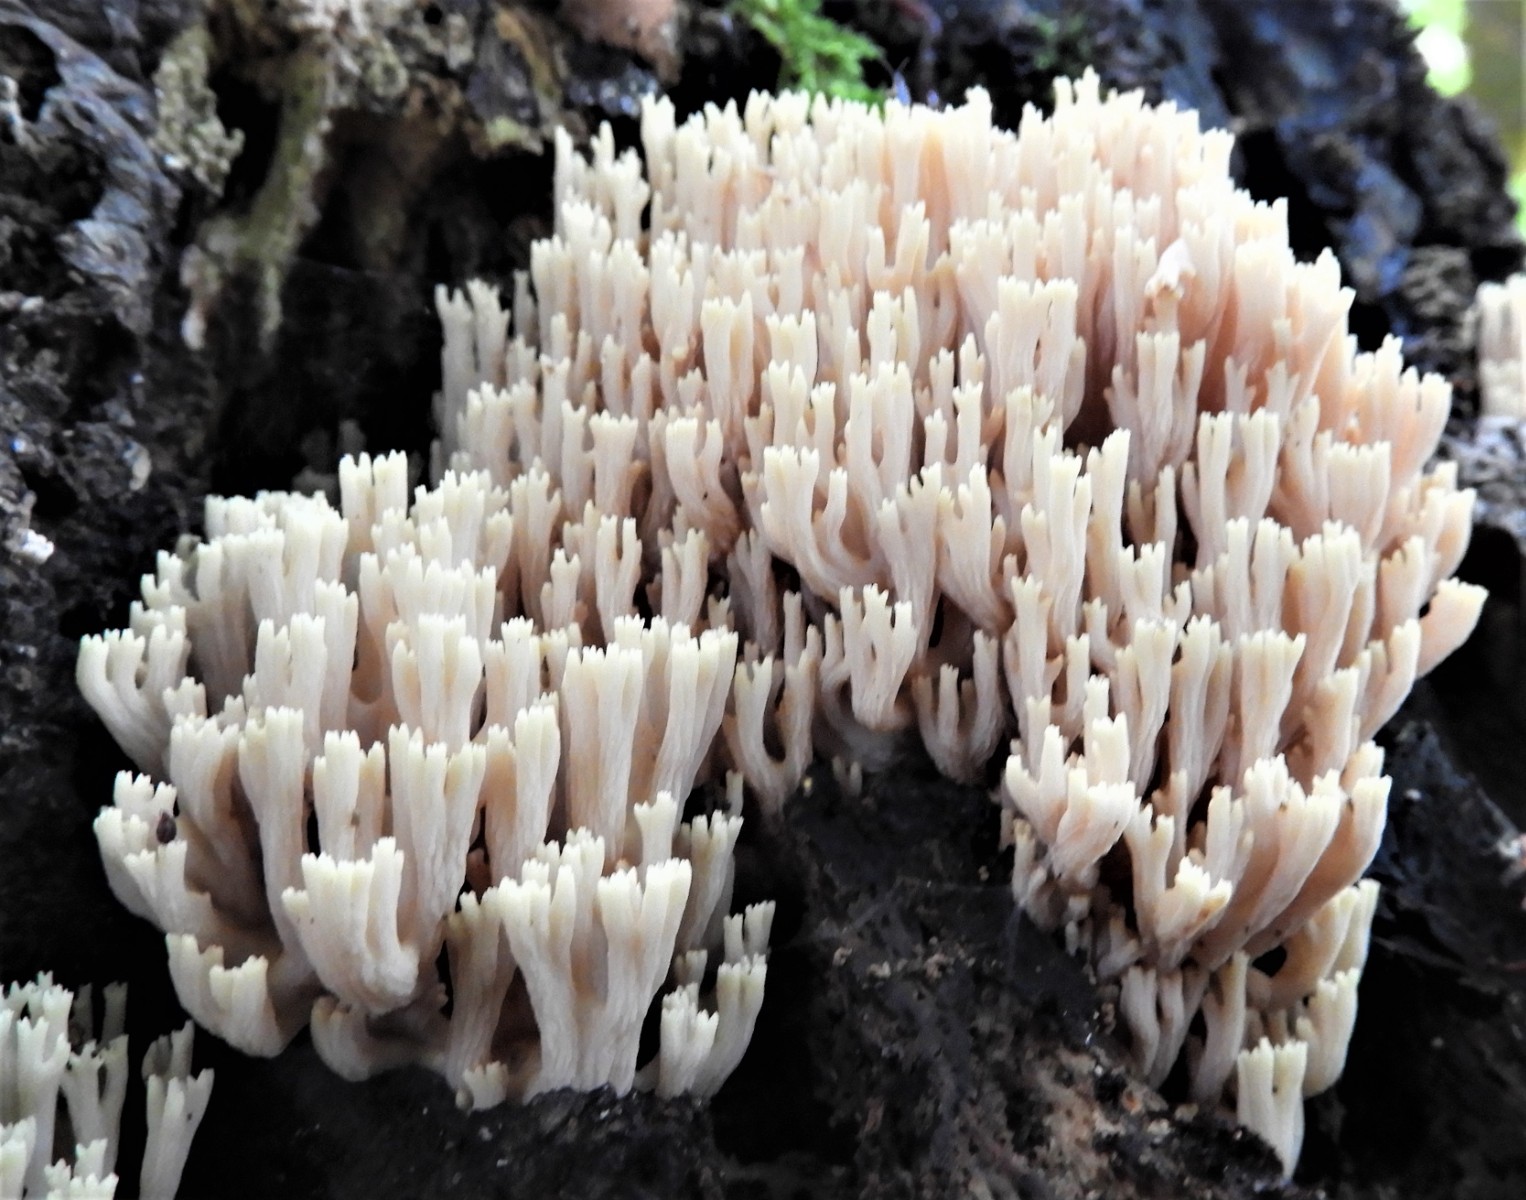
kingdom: Fungi
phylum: Basidiomycota
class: Agaricomycetes
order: Gomphales
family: Gomphaceae
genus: Ramaria
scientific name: Ramaria stricta
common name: rank koralsvamp
